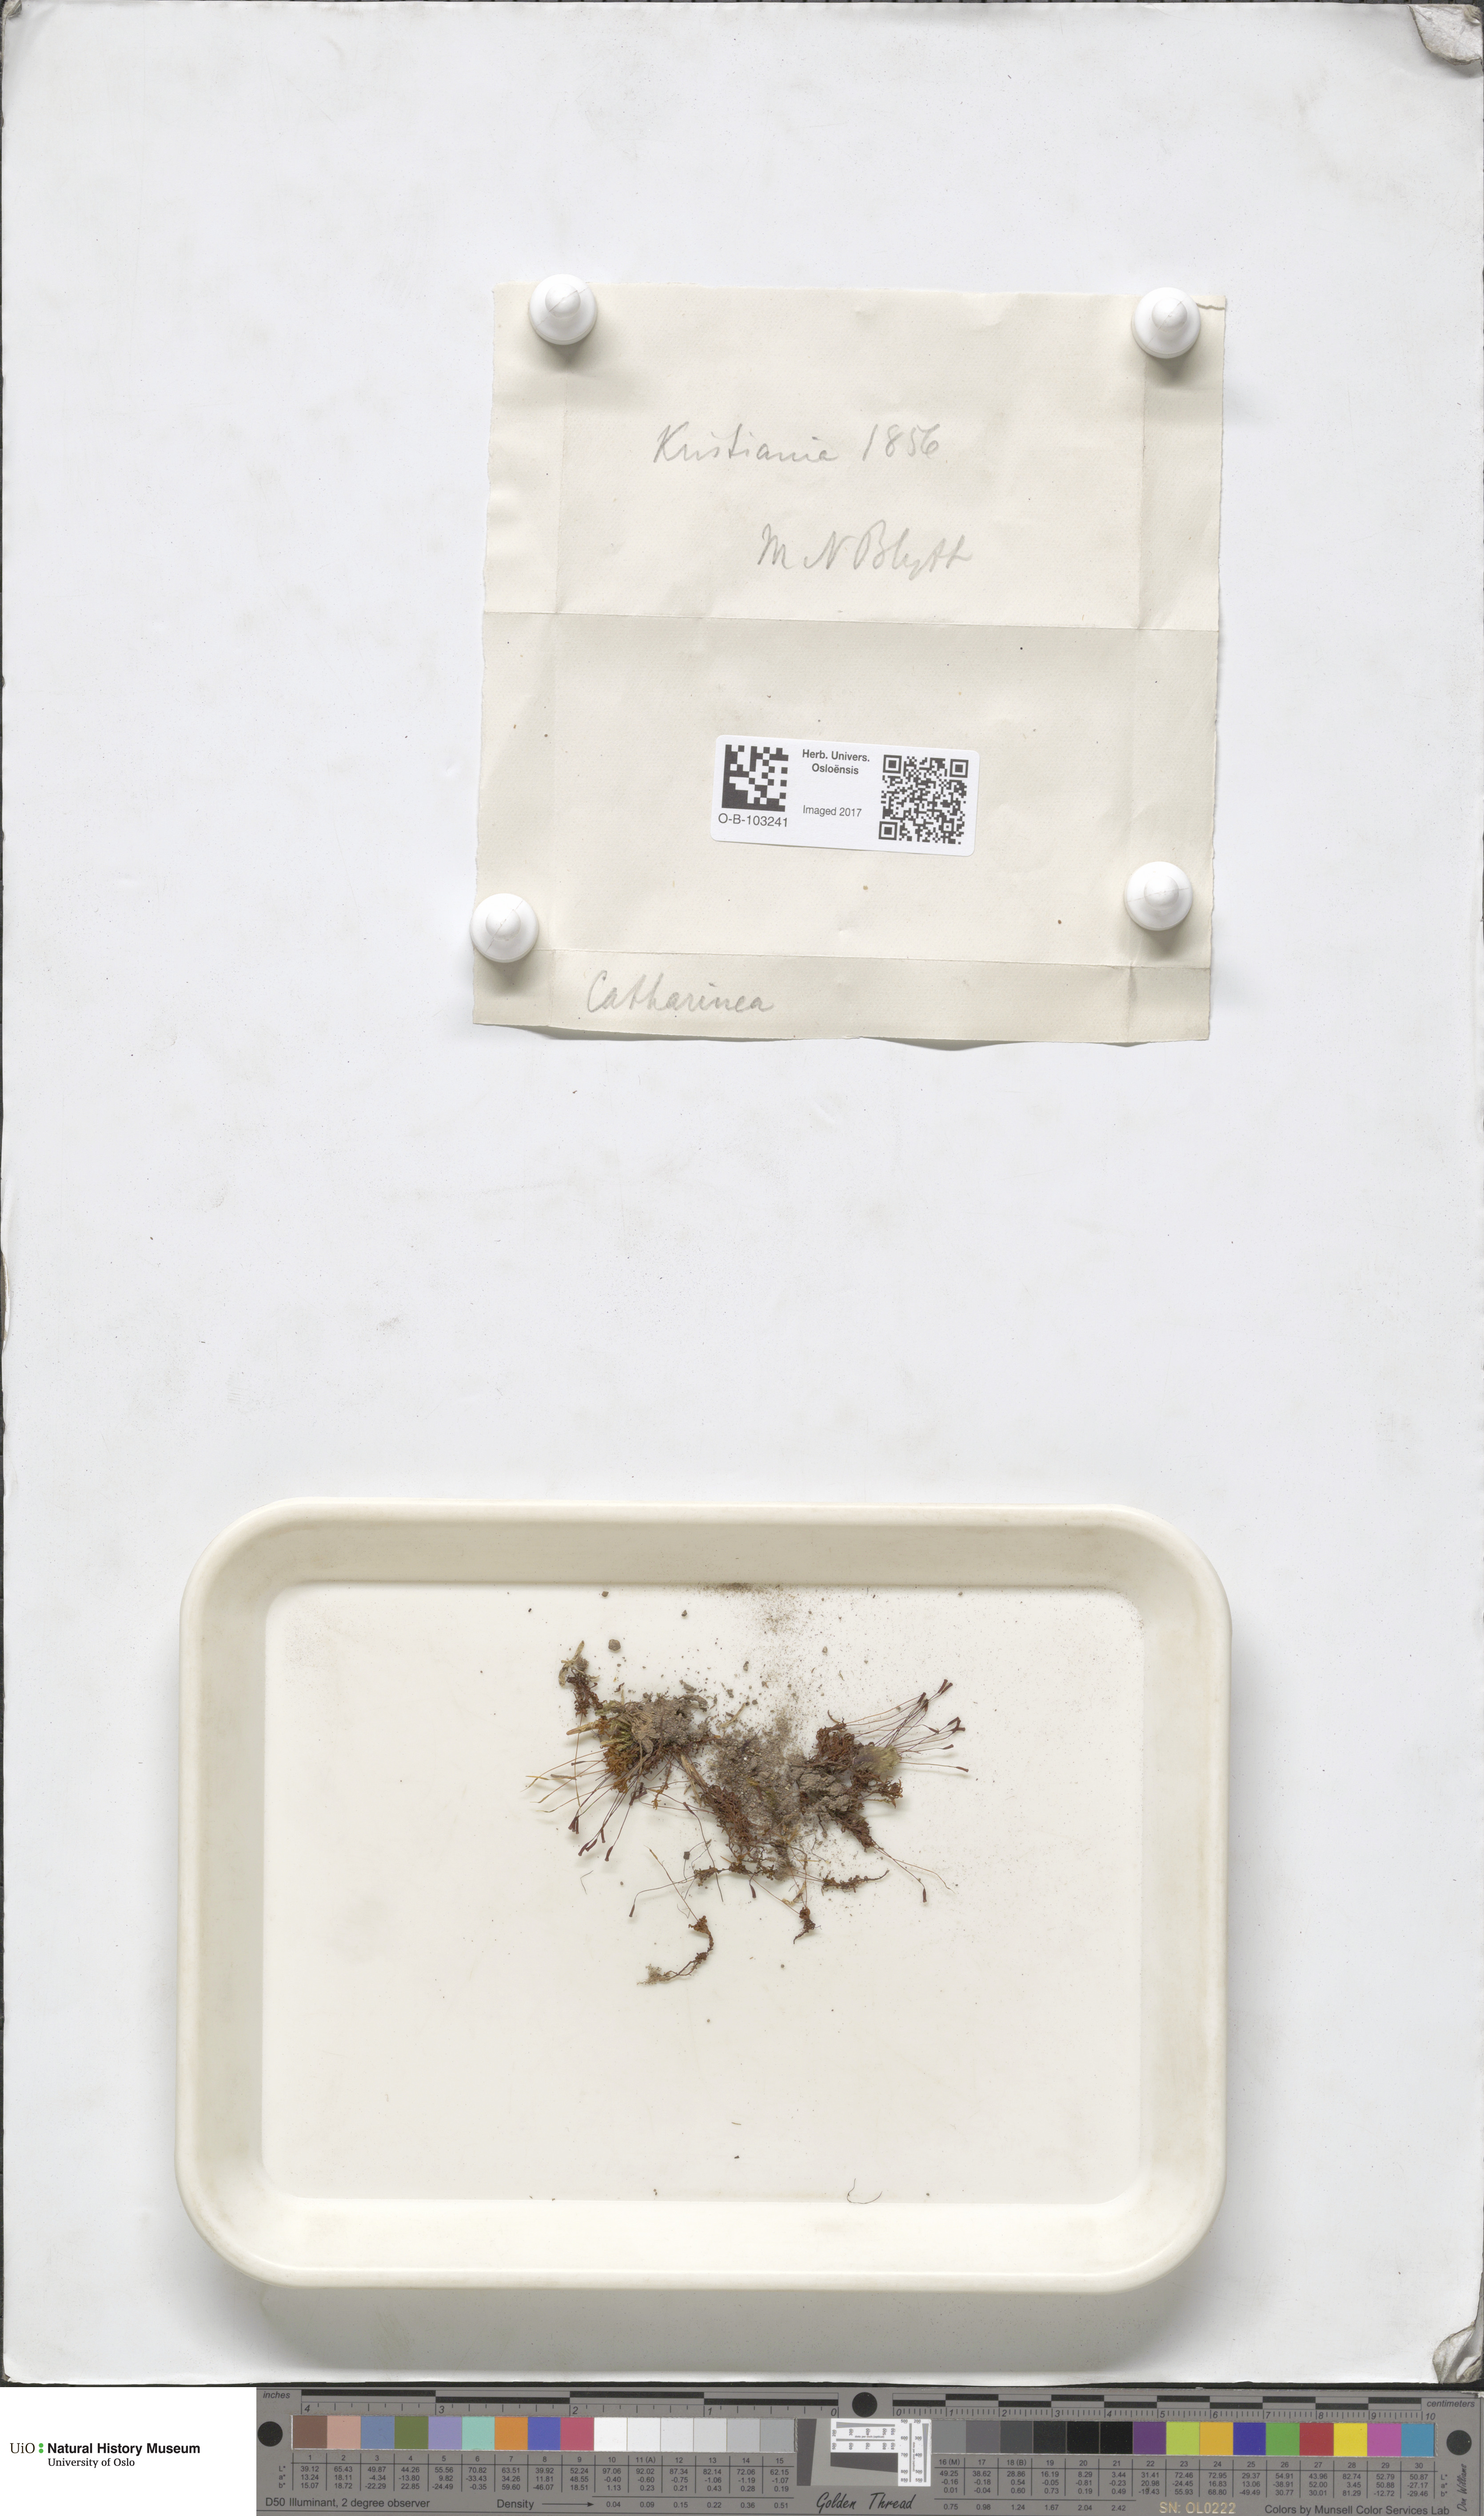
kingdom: Plantae
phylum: Bryophyta
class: Polytrichopsida
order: Polytrichales
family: Polytrichaceae
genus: Atrichum
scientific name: Atrichum undulatum
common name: Common smoothcap
